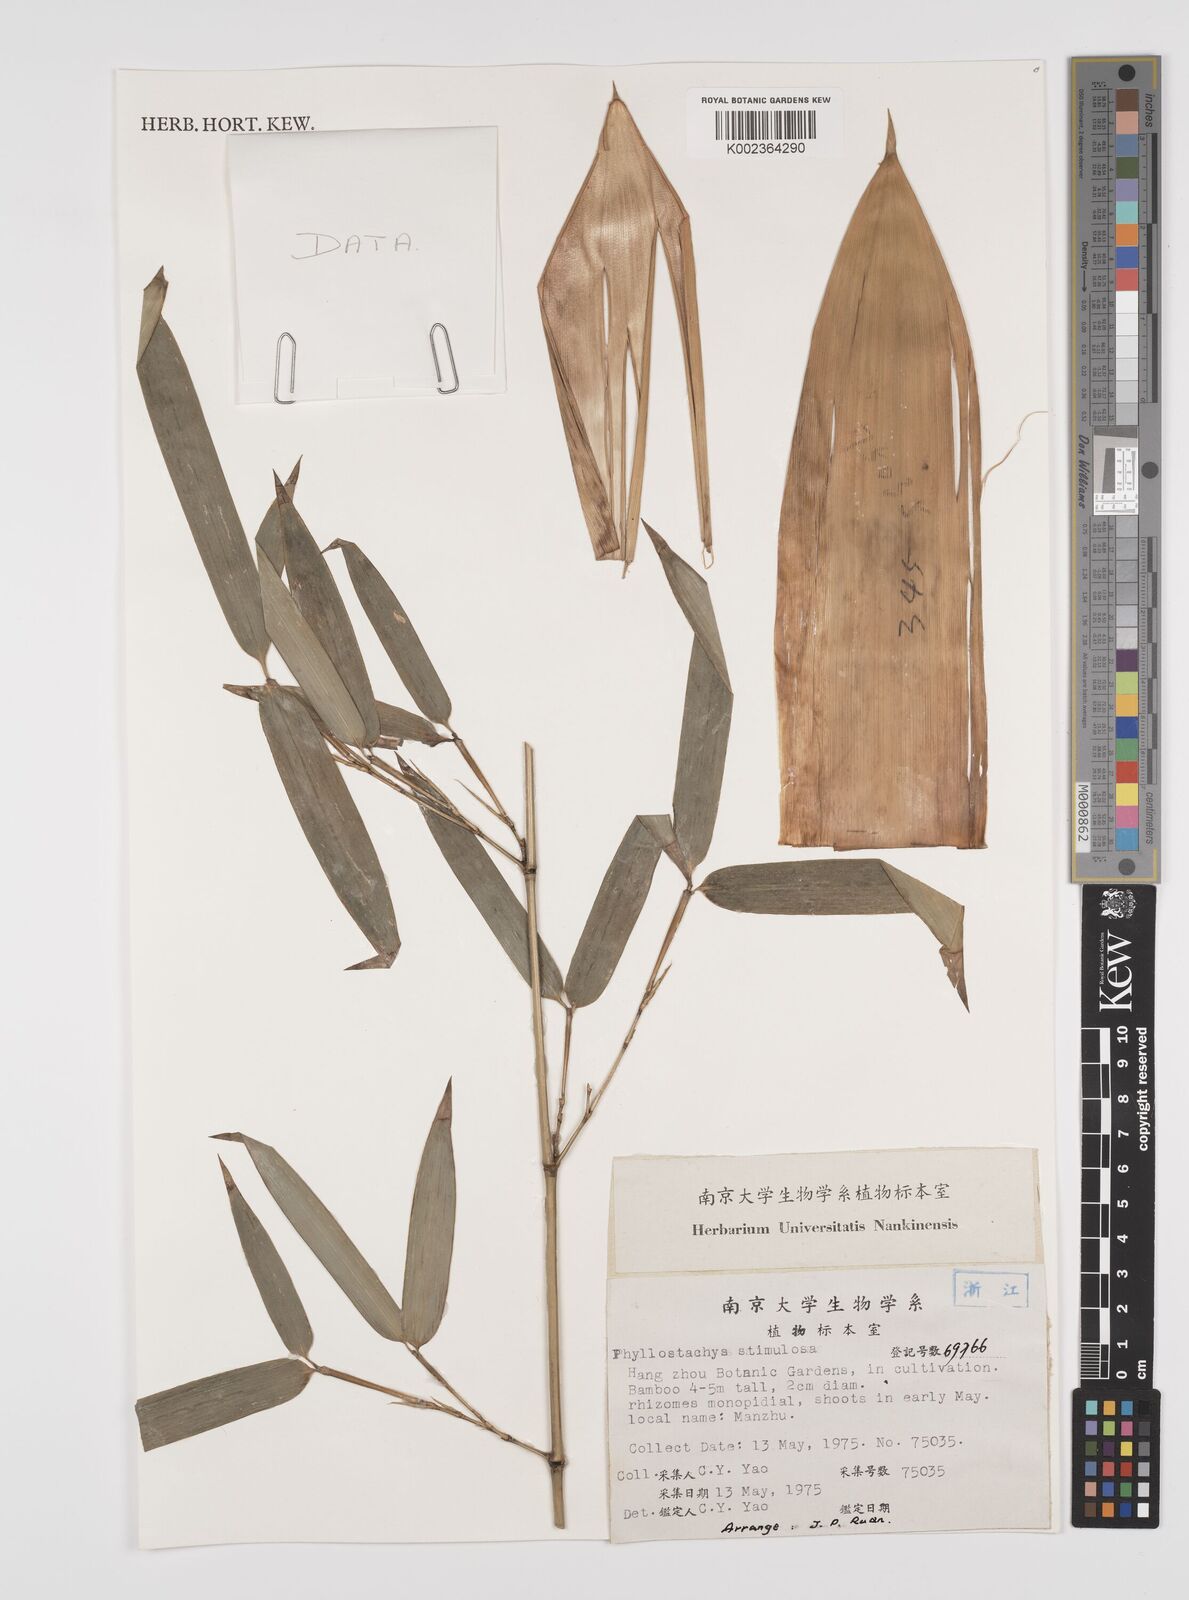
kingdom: Plantae
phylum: Tracheophyta
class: Liliopsida
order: Poales
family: Poaceae
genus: Phyllostachys
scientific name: Phyllostachys stimulosa
